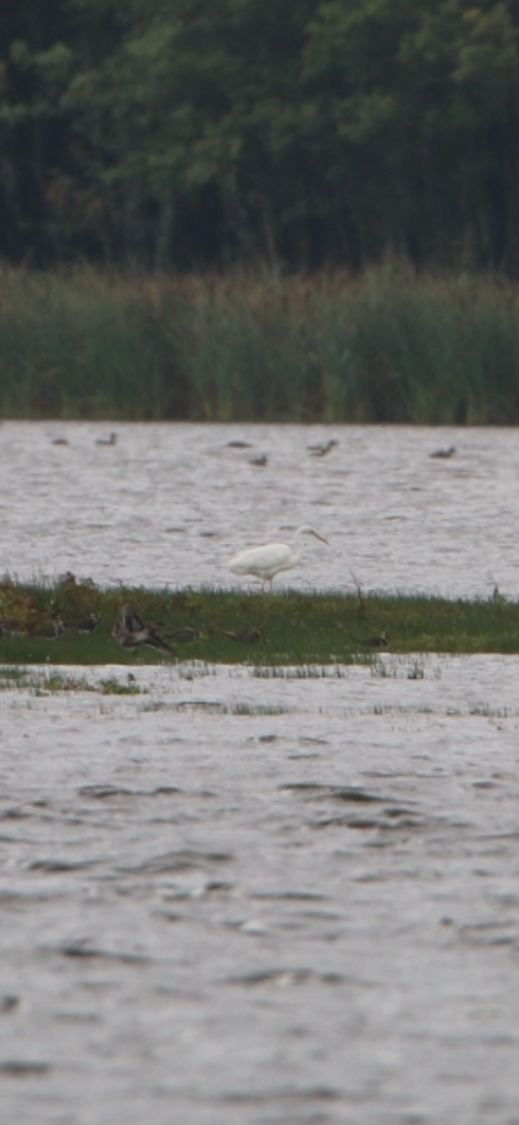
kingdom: Animalia
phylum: Chordata
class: Aves
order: Pelecaniformes
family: Ardeidae
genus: Ardea
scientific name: Ardea alba
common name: Sølvhejre
